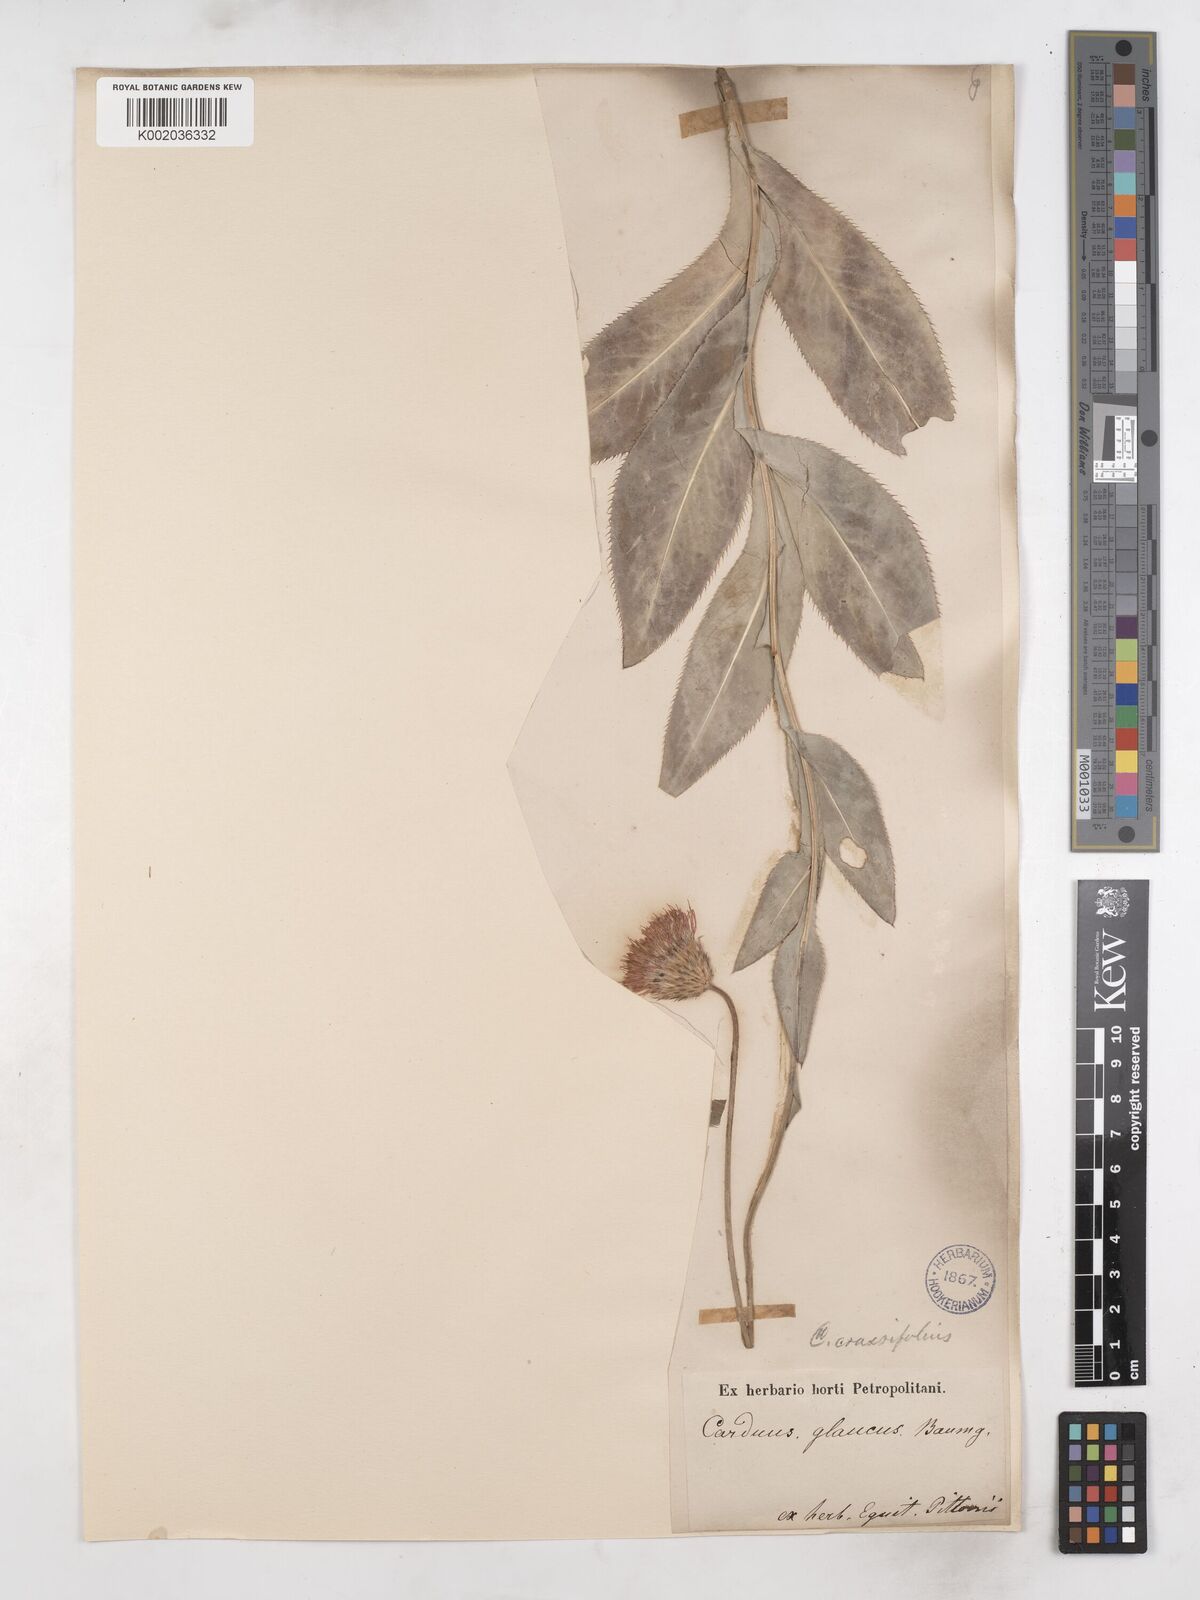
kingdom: Plantae
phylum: Tracheophyta
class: Magnoliopsida
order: Asterales
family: Asteraceae
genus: Carduus
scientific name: Carduus defloratus
